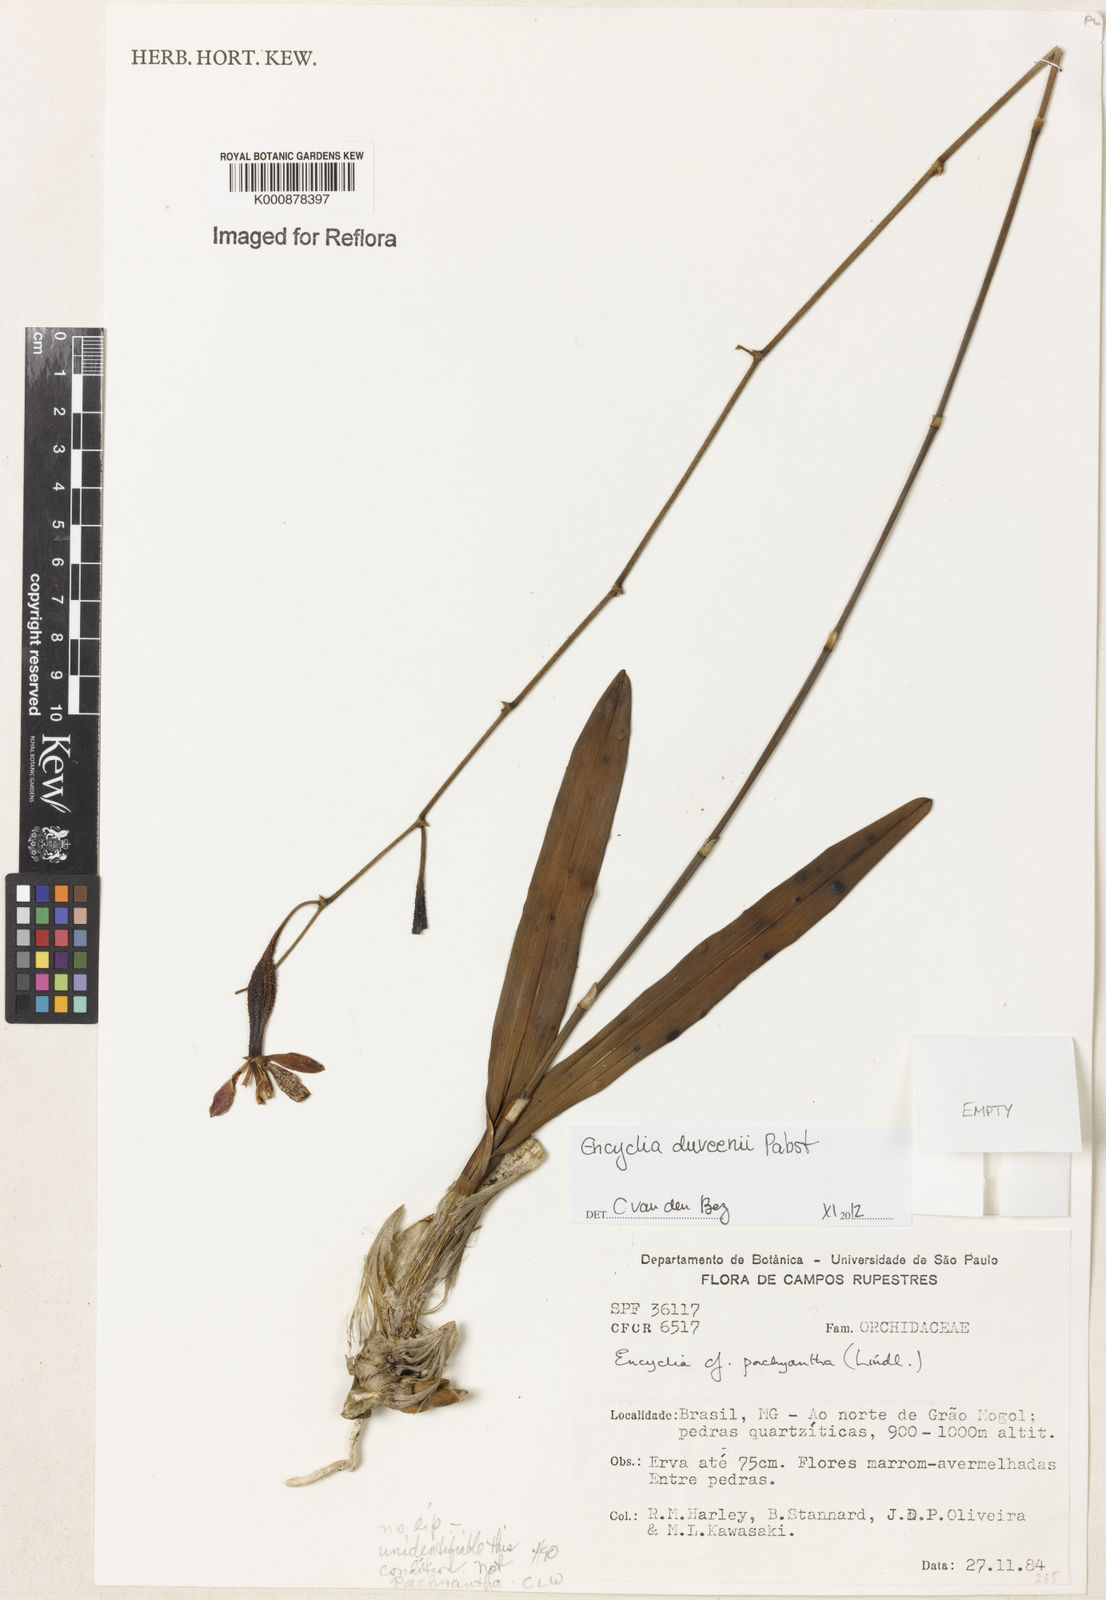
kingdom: Plantae
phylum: Tracheophyta
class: Liliopsida
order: Asparagales
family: Orchidaceae
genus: Encyclia
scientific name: Encyclia duveenii
